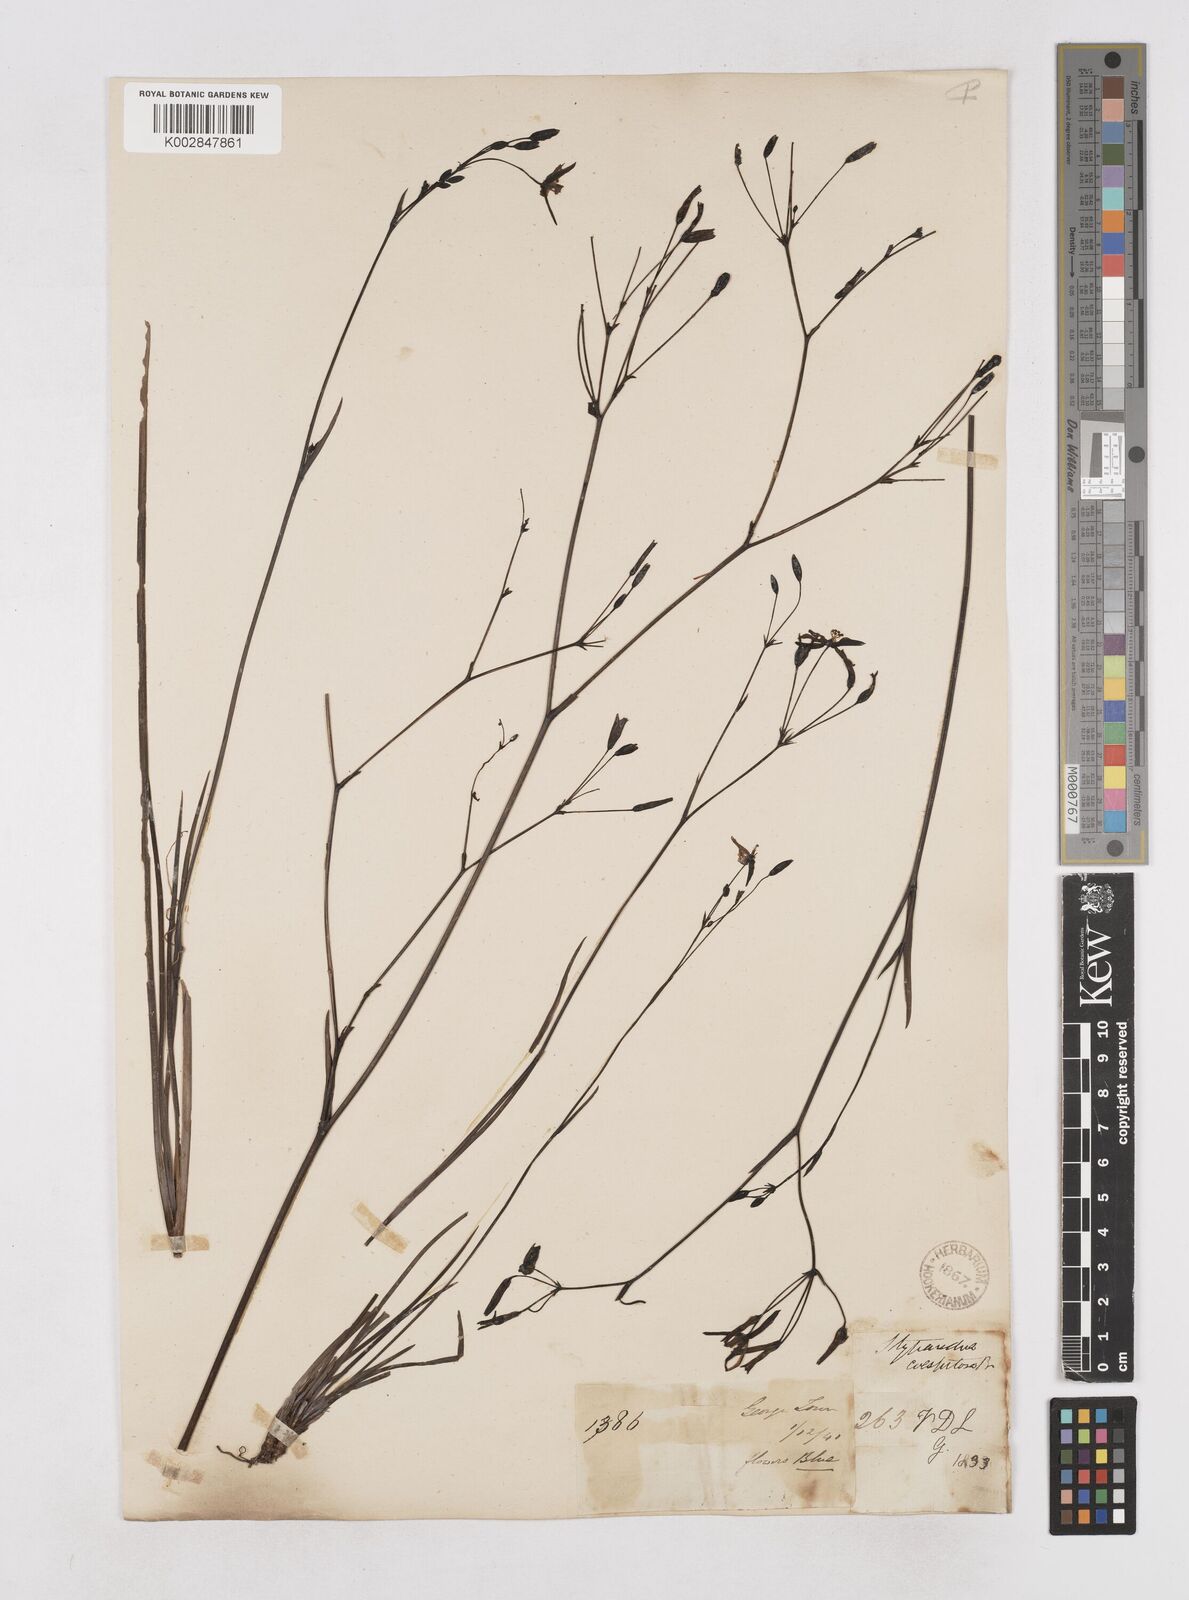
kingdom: Plantae
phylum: Tracheophyta
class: Liliopsida
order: Asparagales
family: Asphodelaceae
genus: Thelionema
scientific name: Thelionema caespitosum
